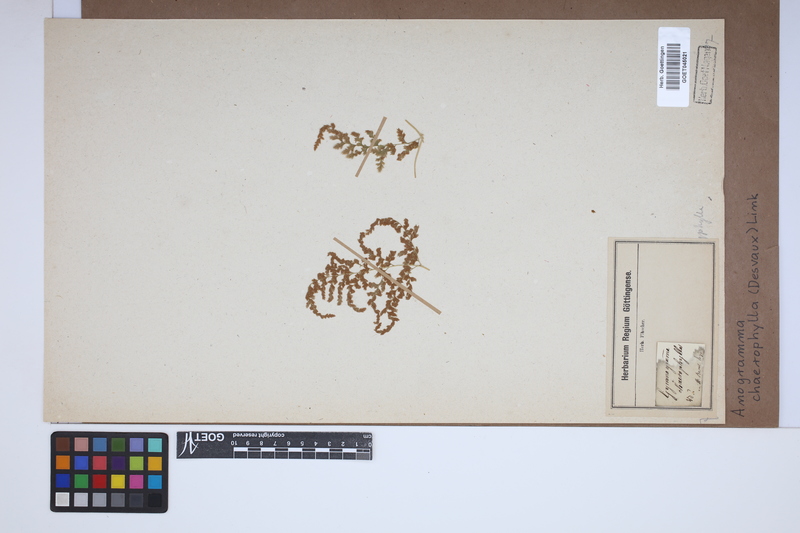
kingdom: Plantae
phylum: Tracheophyta
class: Polypodiopsida
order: Polypodiales
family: Pteridaceae
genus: Gastoniella
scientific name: Gastoniella chaerophylla
